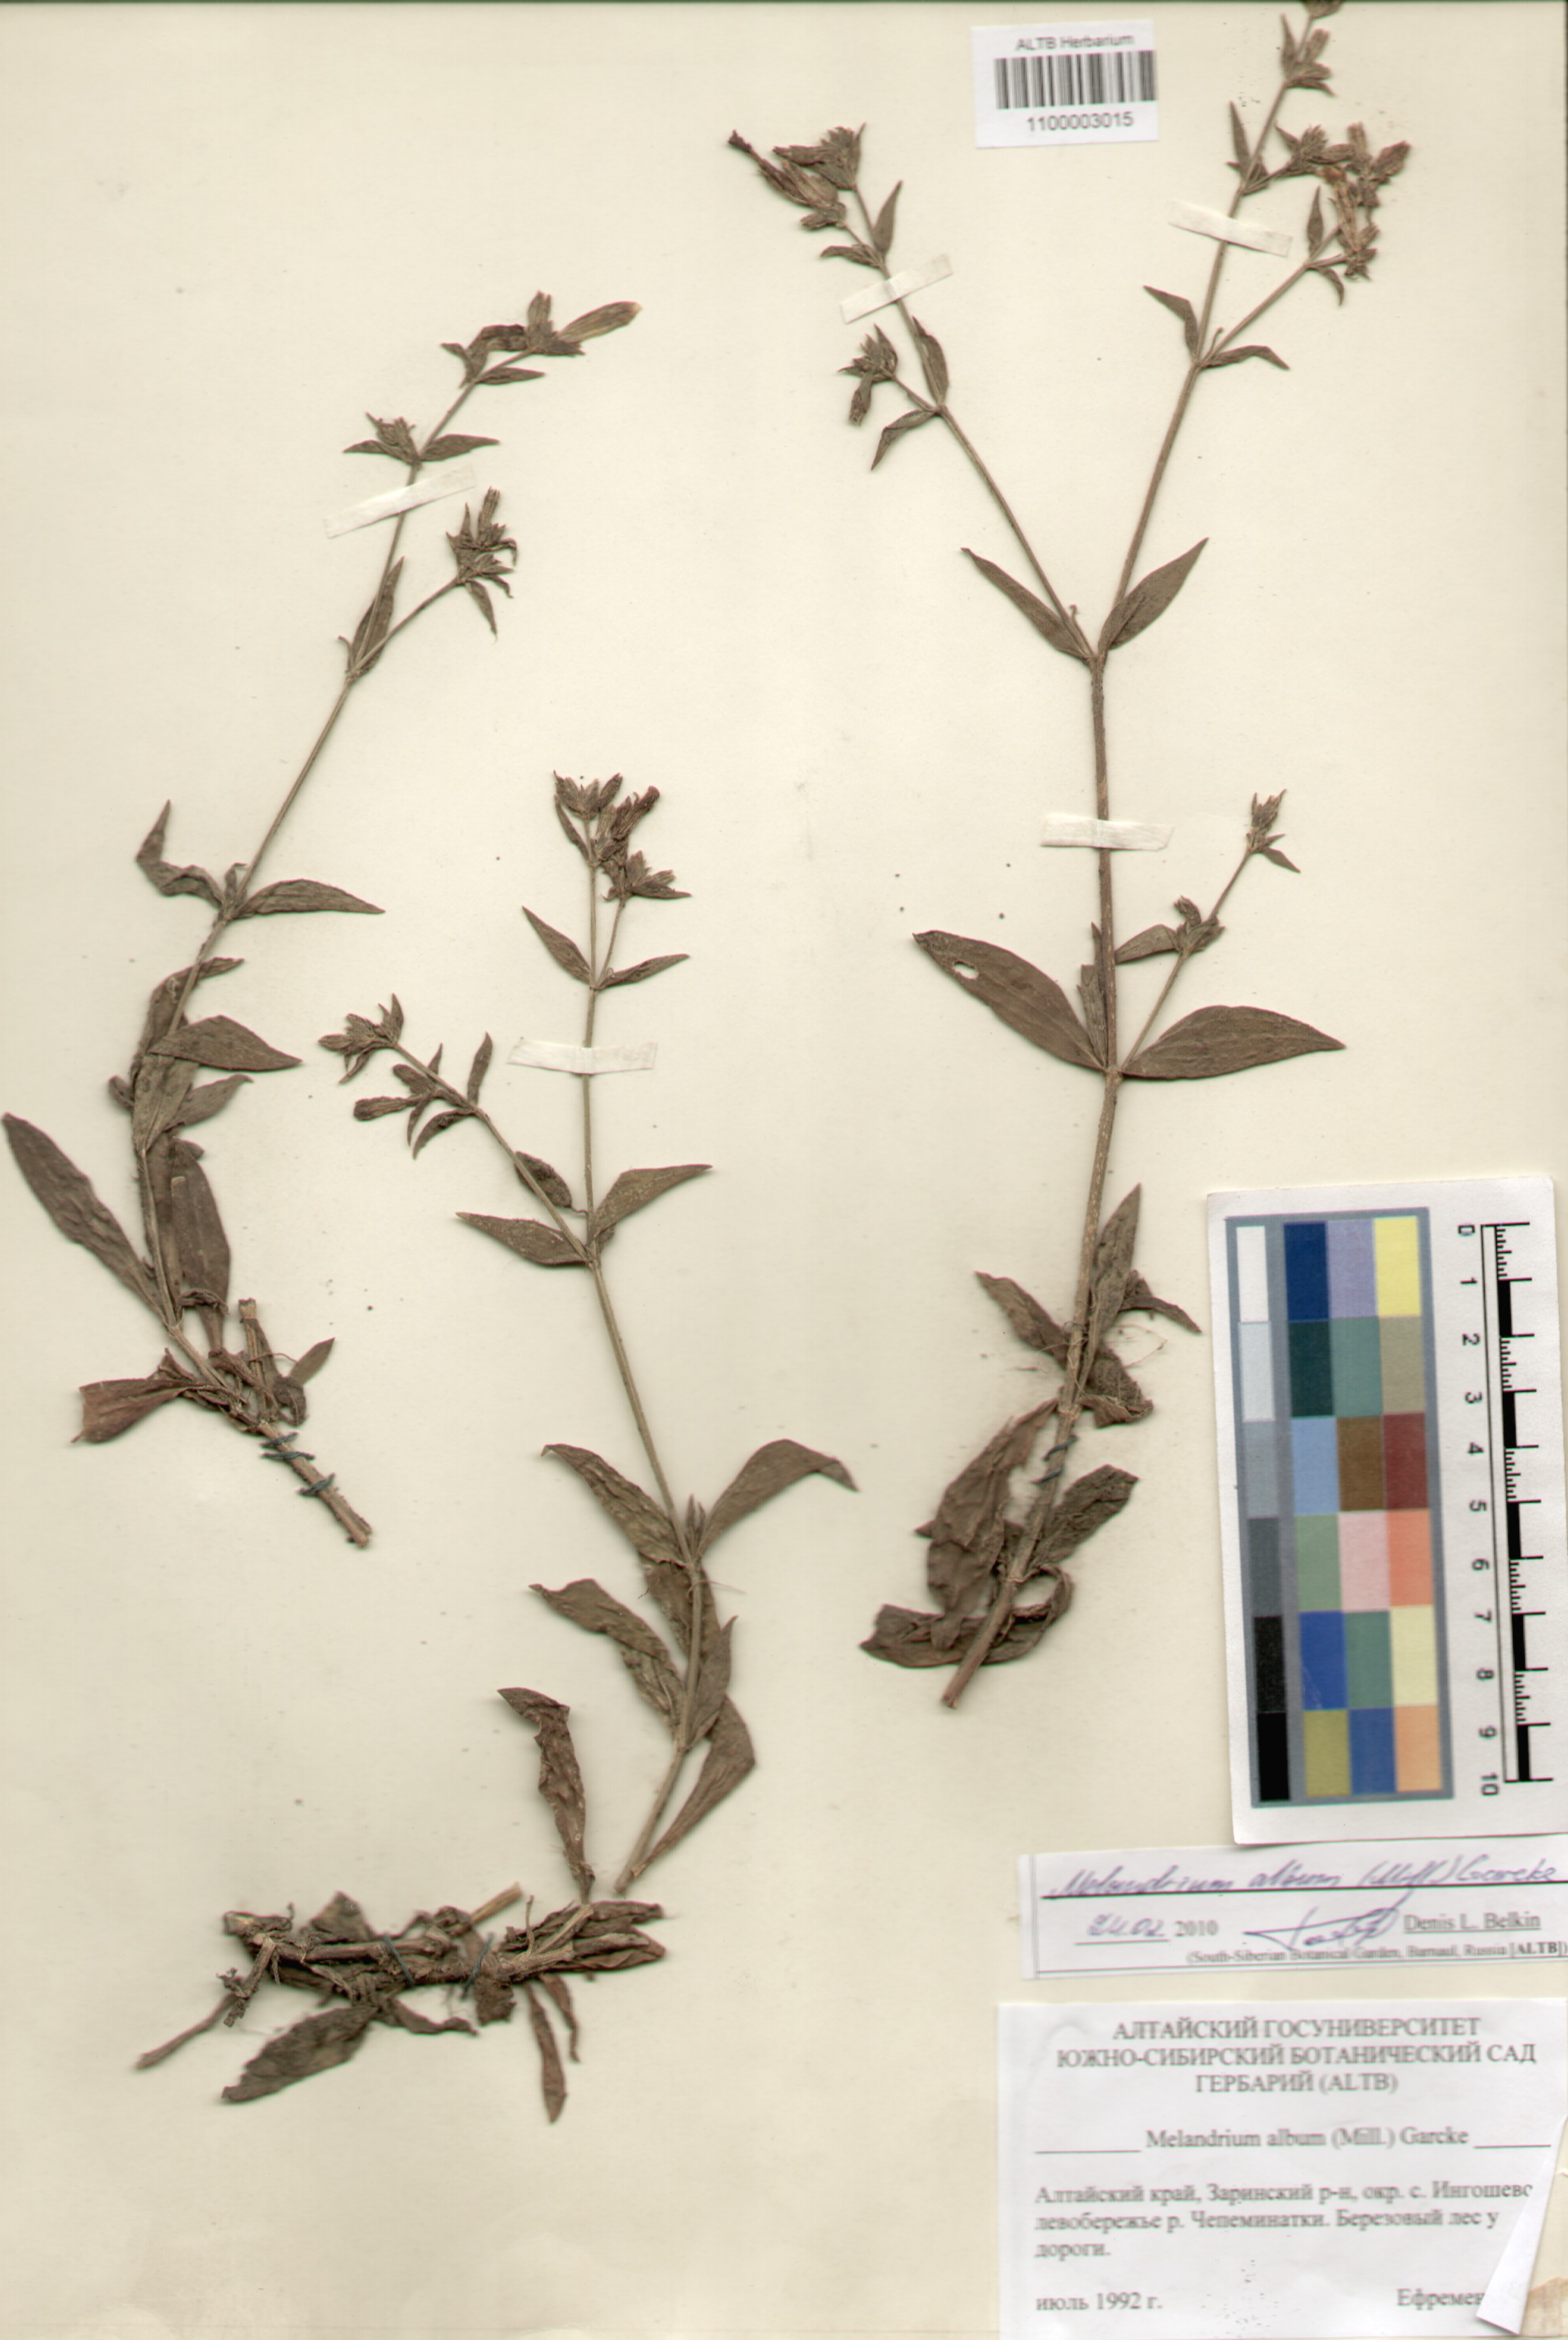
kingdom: Plantae
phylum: Tracheophyta
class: Magnoliopsida
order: Caryophyllales
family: Caryophyllaceae
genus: Silene
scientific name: Silene latifolia
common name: White campion
